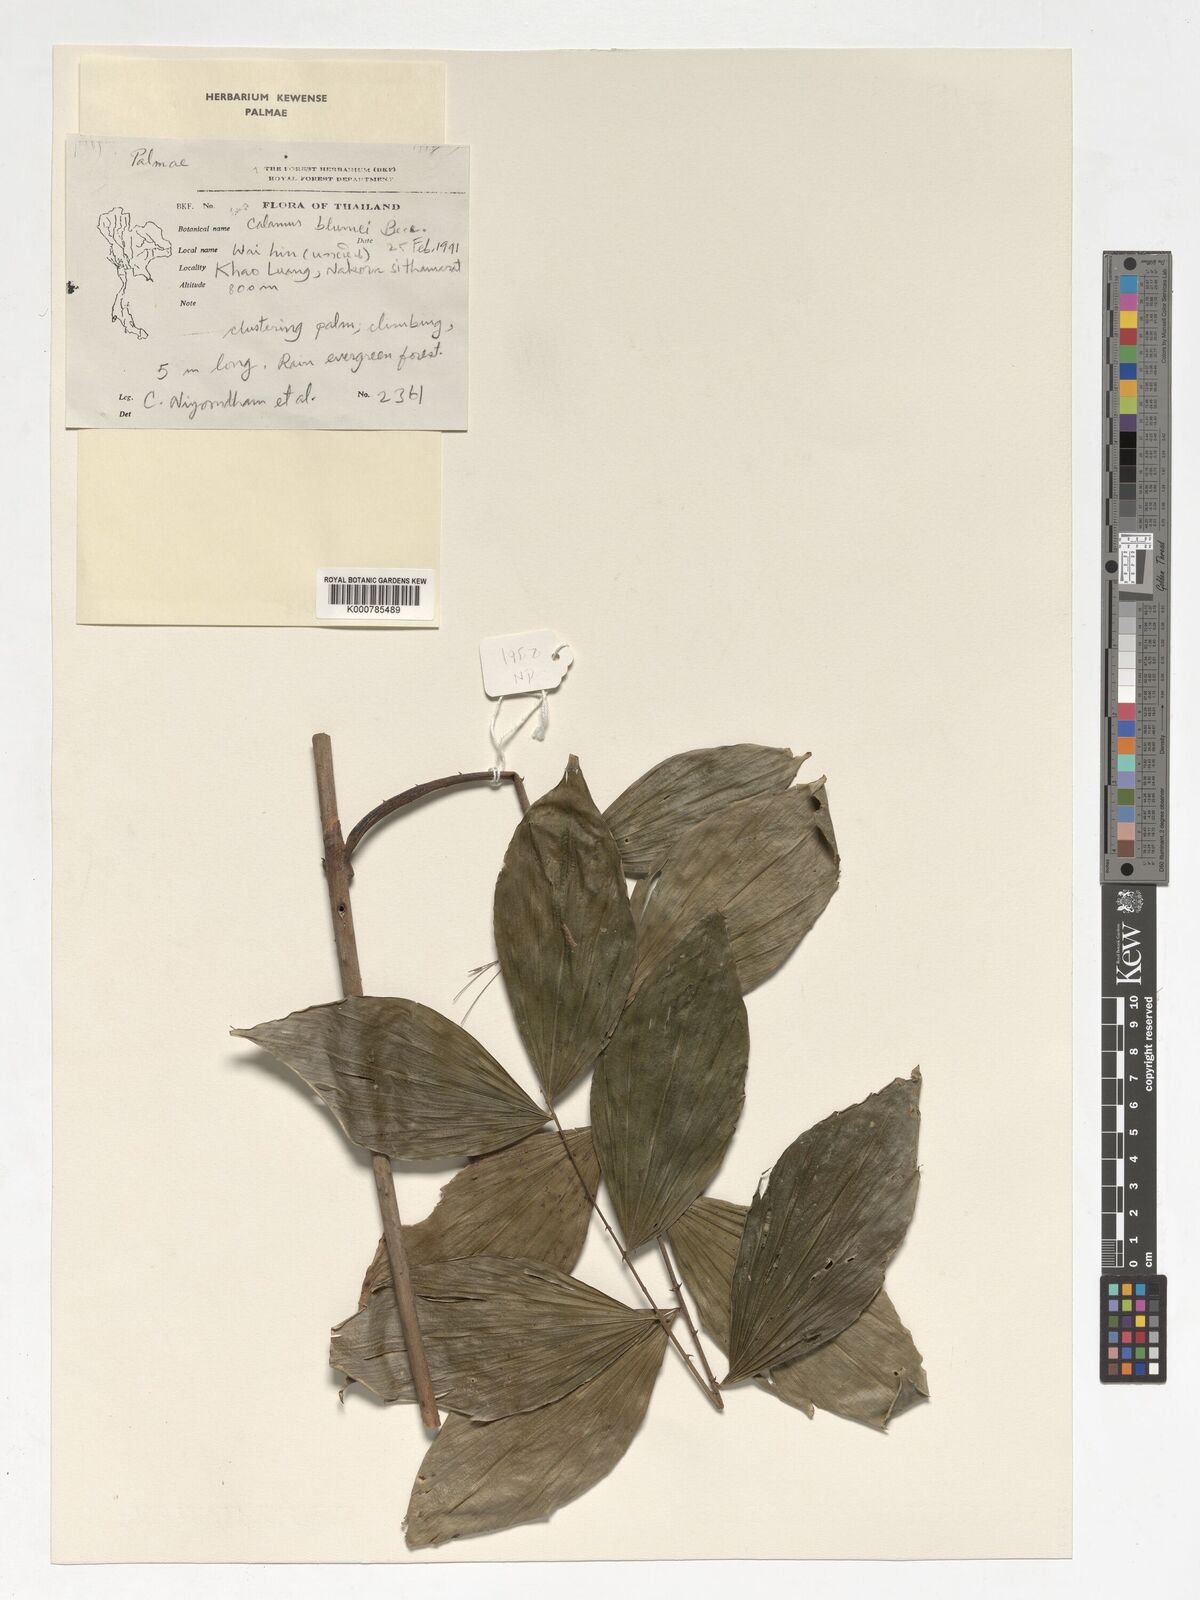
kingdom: Plantae
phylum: Tracheophyta
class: Liliopsida
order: Arecales
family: Arecaceae
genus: Calamus
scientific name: Calamus rhomboideus
